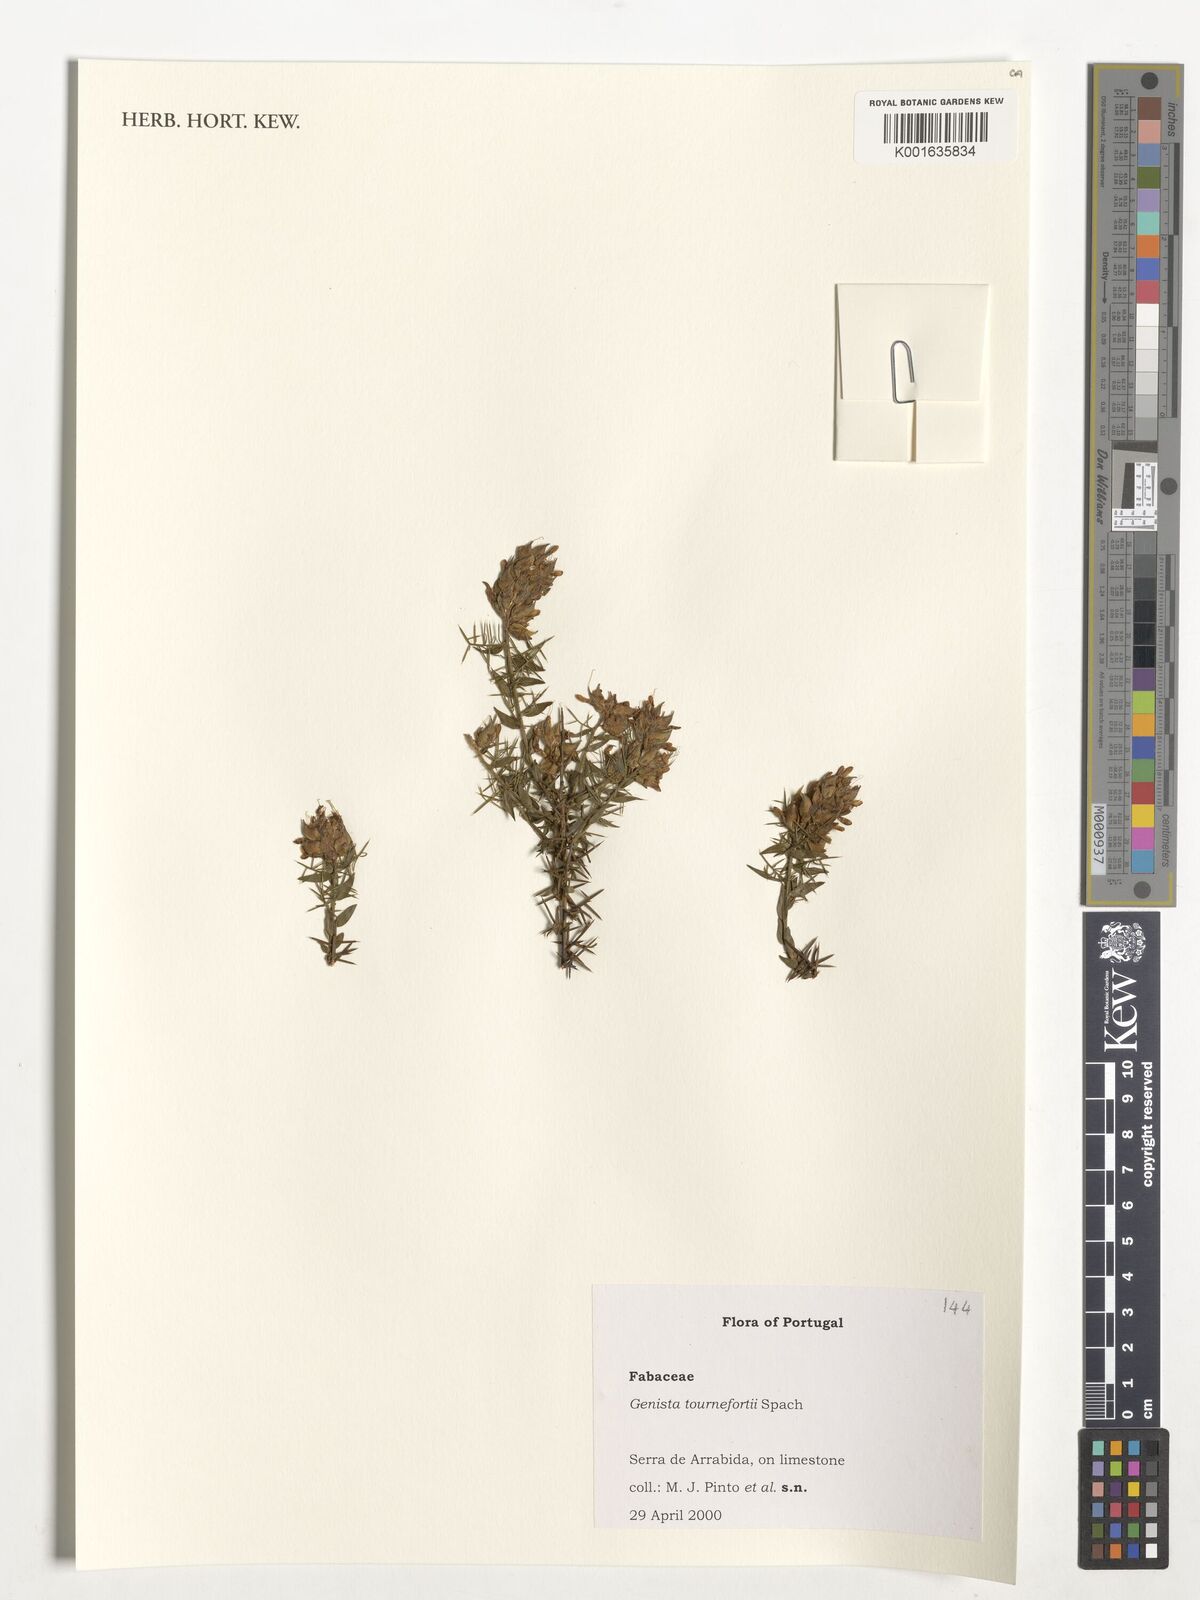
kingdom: Plantae
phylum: Tracheophyta
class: Magnoliopsida
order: Fabales
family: Fabaceae
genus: Genista
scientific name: Genista tournefortii
